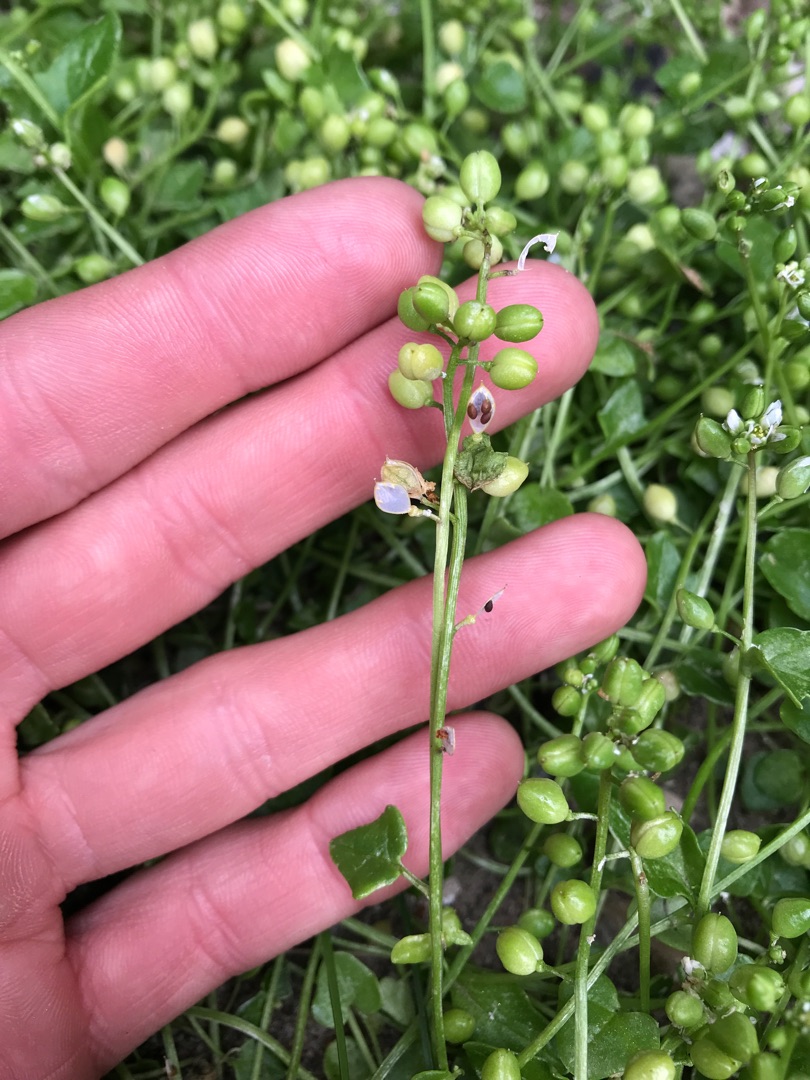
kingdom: Plantae
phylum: Tracheophyta
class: Magnoliopsida
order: Brassicales
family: Brassicaceae
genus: Cochlearia
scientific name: Cochlearia danica
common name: Dansk kokleare
